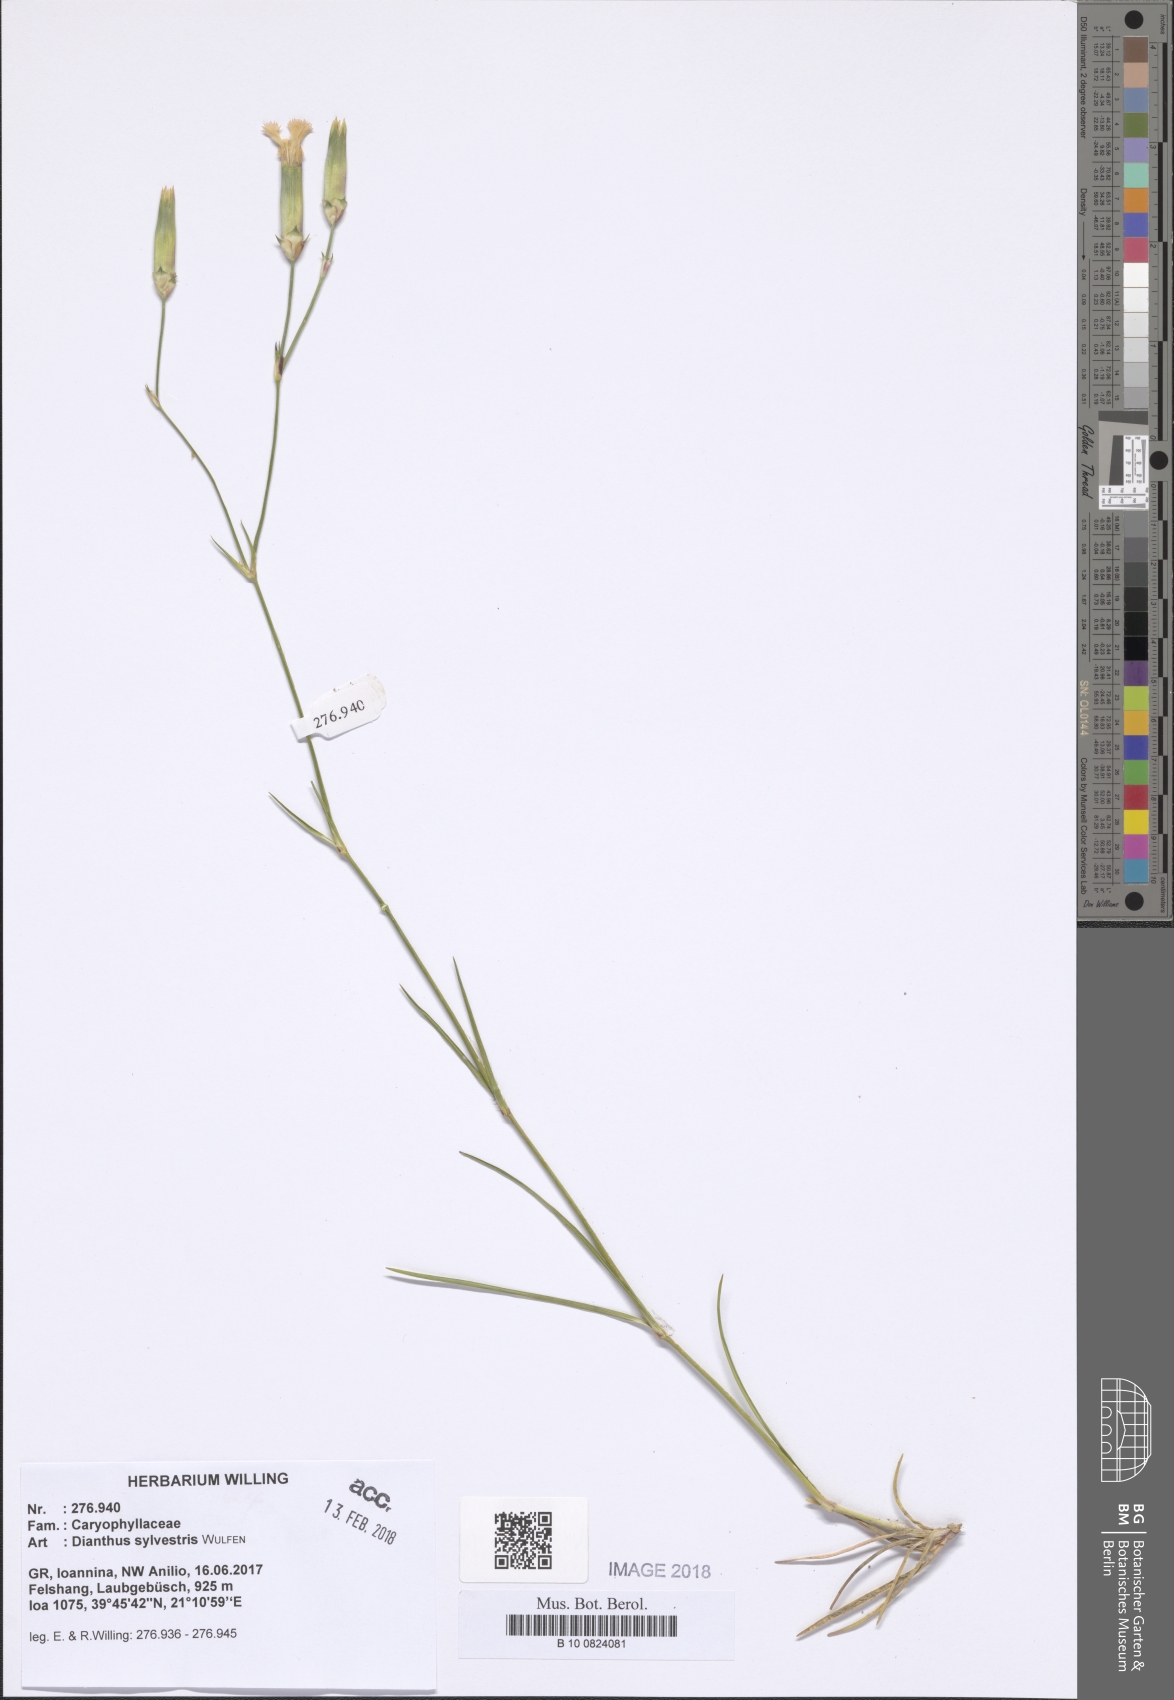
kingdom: Plantae
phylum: Tracheophyta
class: Magnoliopsida
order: Caryophyllales
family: Caryophyllaceae
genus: Dianthus
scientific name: Dianthus sylvestris
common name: Wood pink
